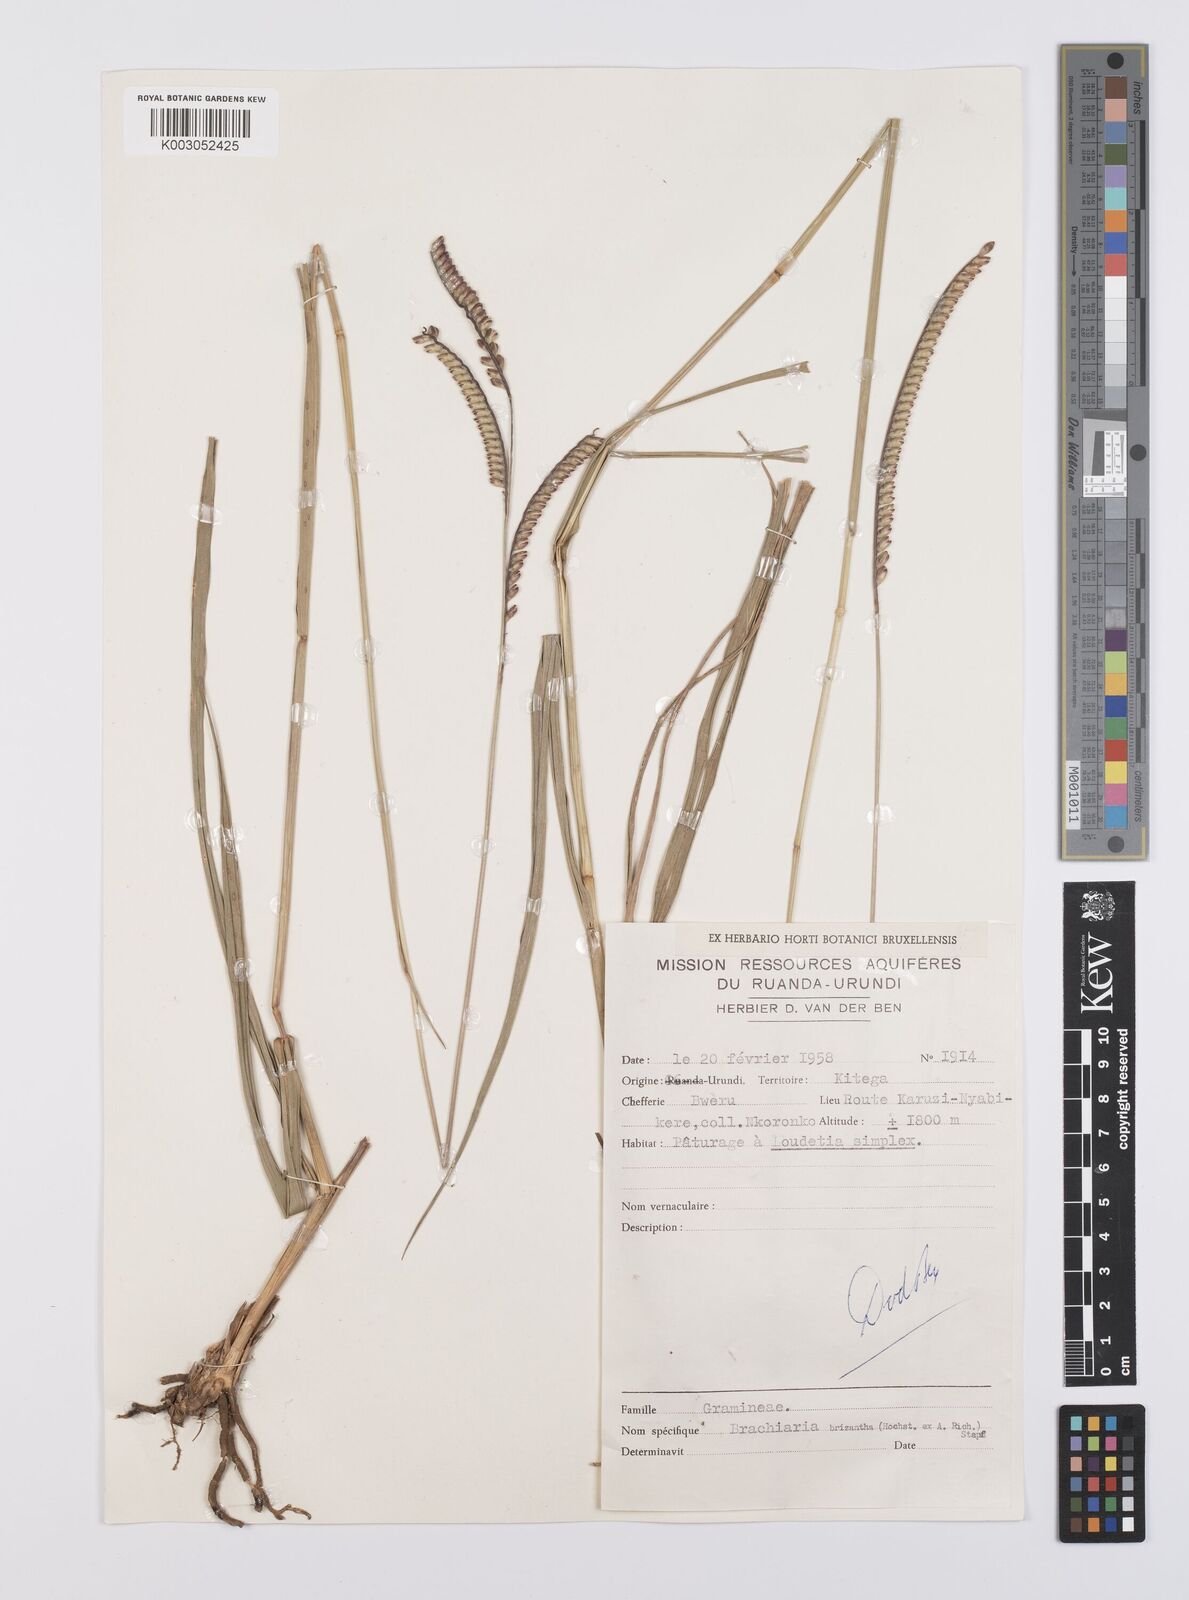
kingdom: Plantae
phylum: Tracheophyta
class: Liliopsida
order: Poales
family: Poaceae
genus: Urochloa
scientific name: Urochloa brizantha
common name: Palisade signalgrass
